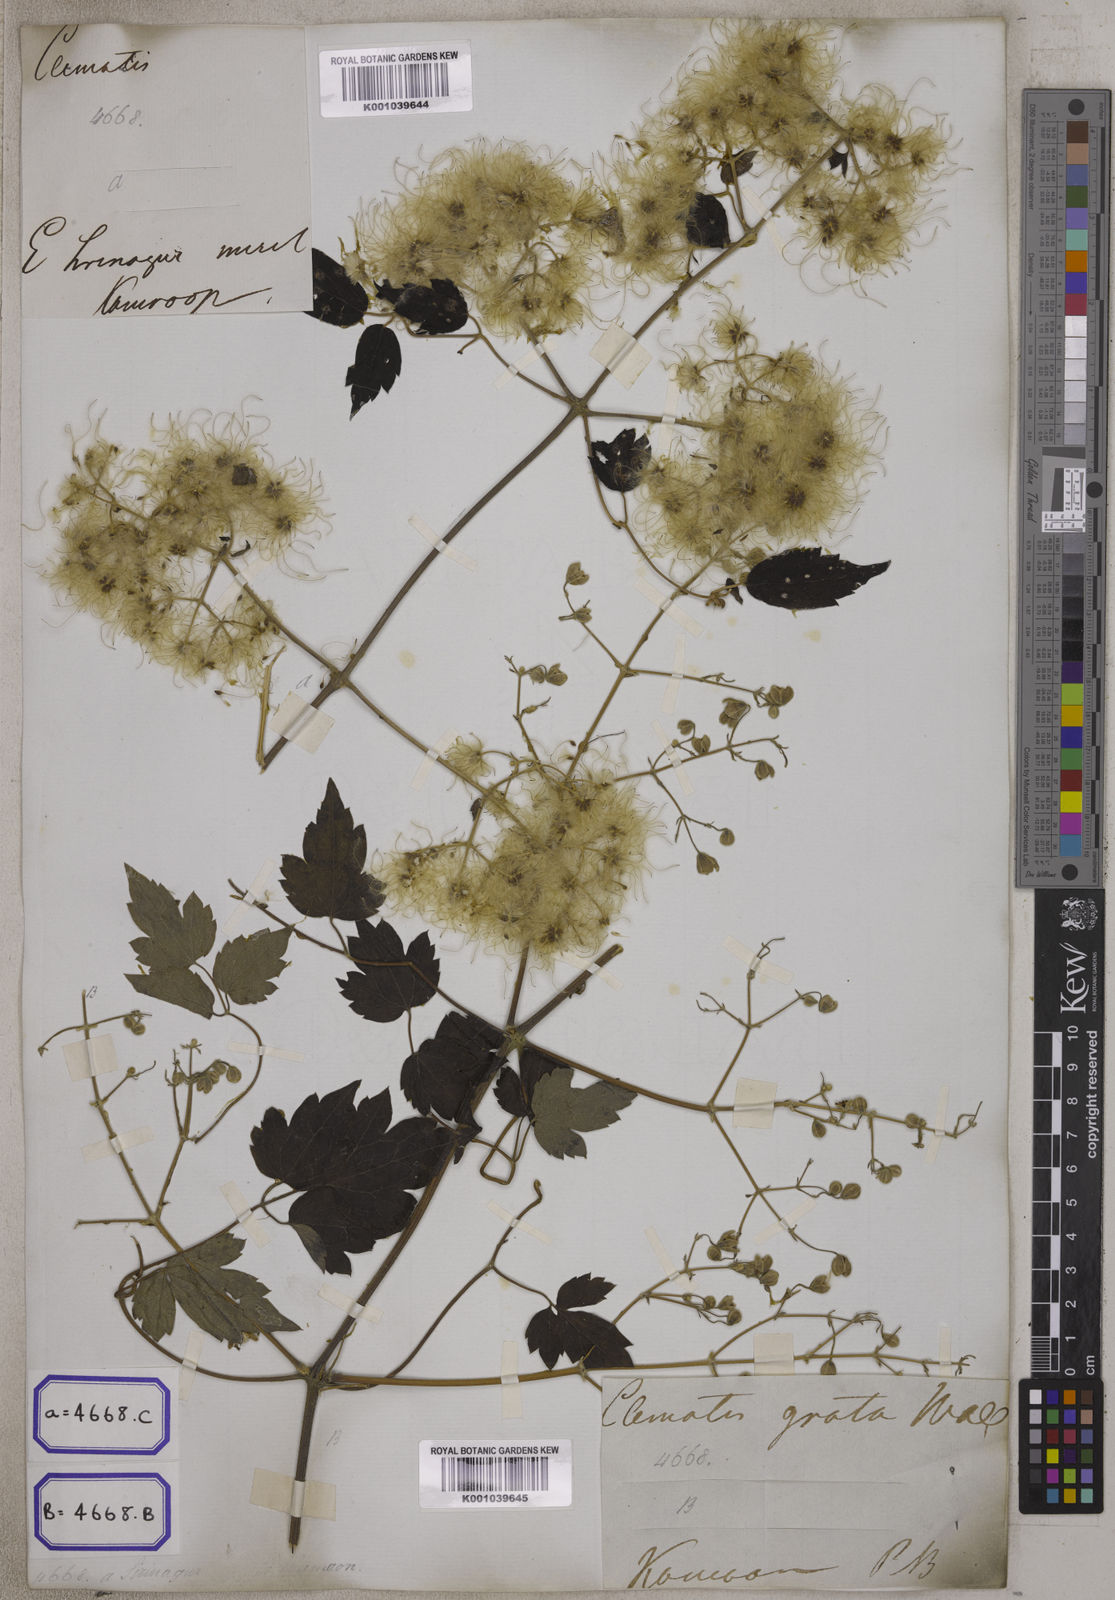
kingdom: Plantae
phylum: Tracheophyta
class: Magnoliopsida
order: Ranunculales
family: Ranunculaceae
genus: Clematis
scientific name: Clematis grata
